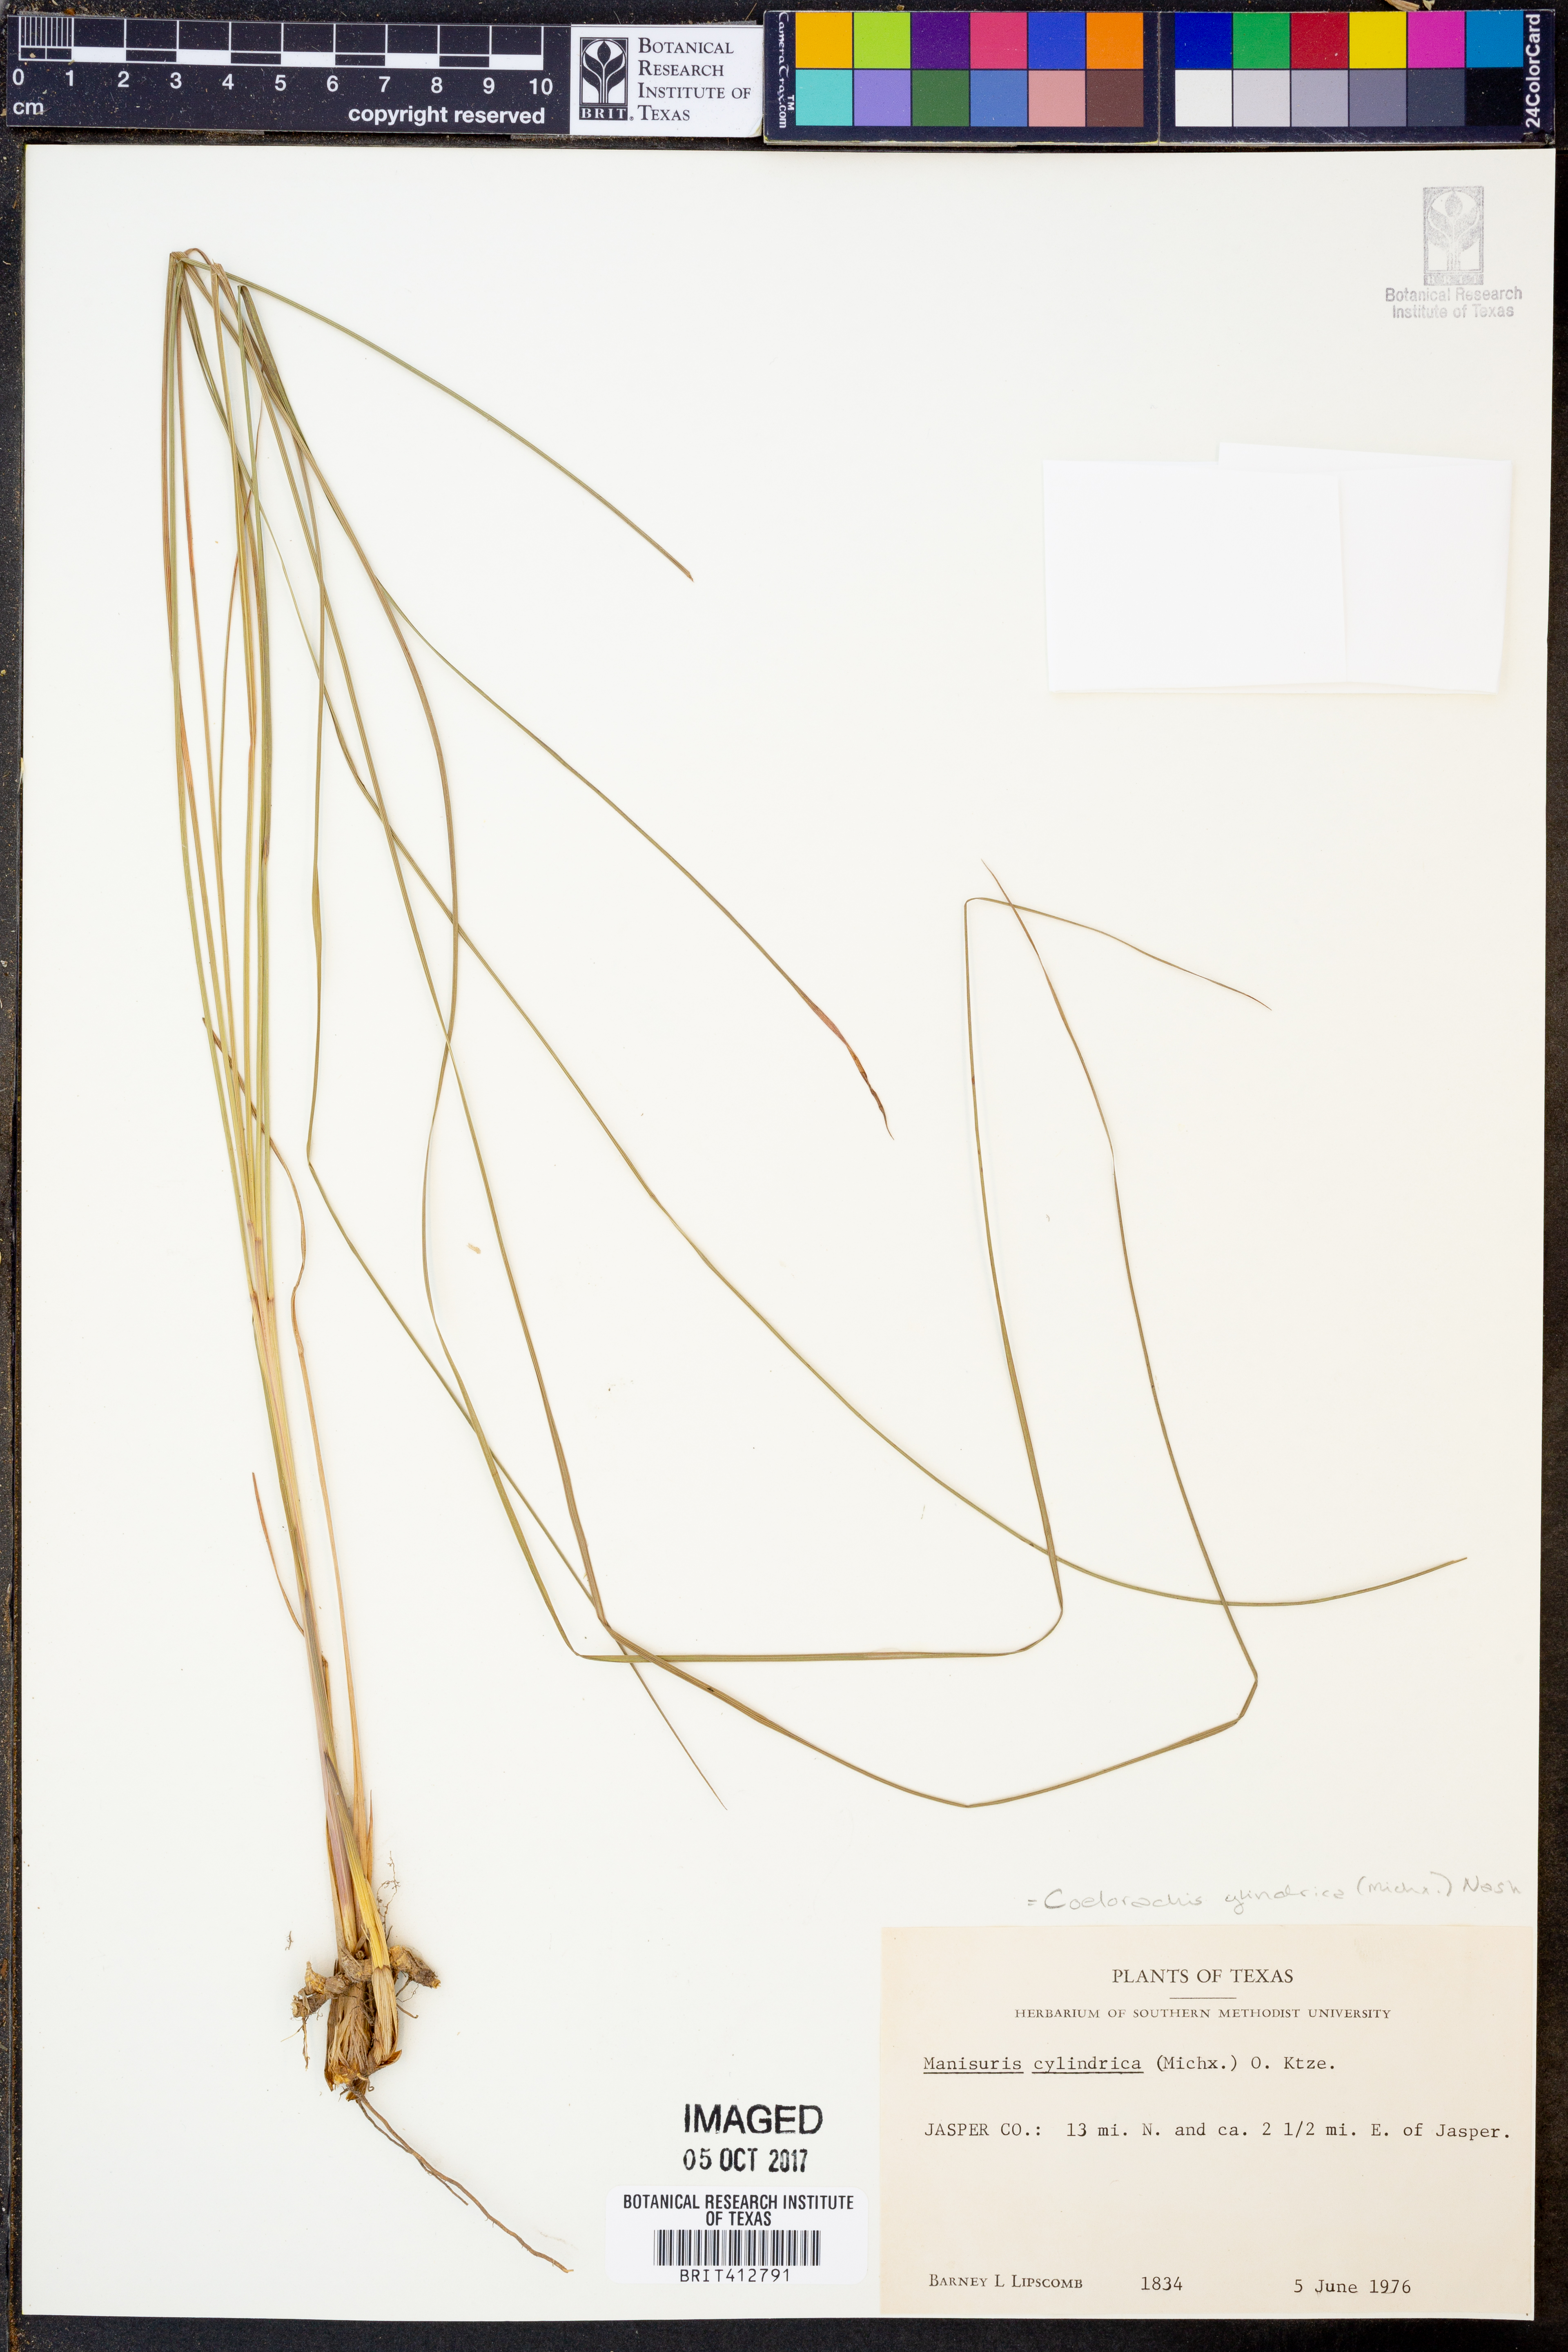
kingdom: Plantae
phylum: Tracheophyta
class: Liliopsida
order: Poales
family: Poaceae
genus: Rottboellia
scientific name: Rottboellia campestris
